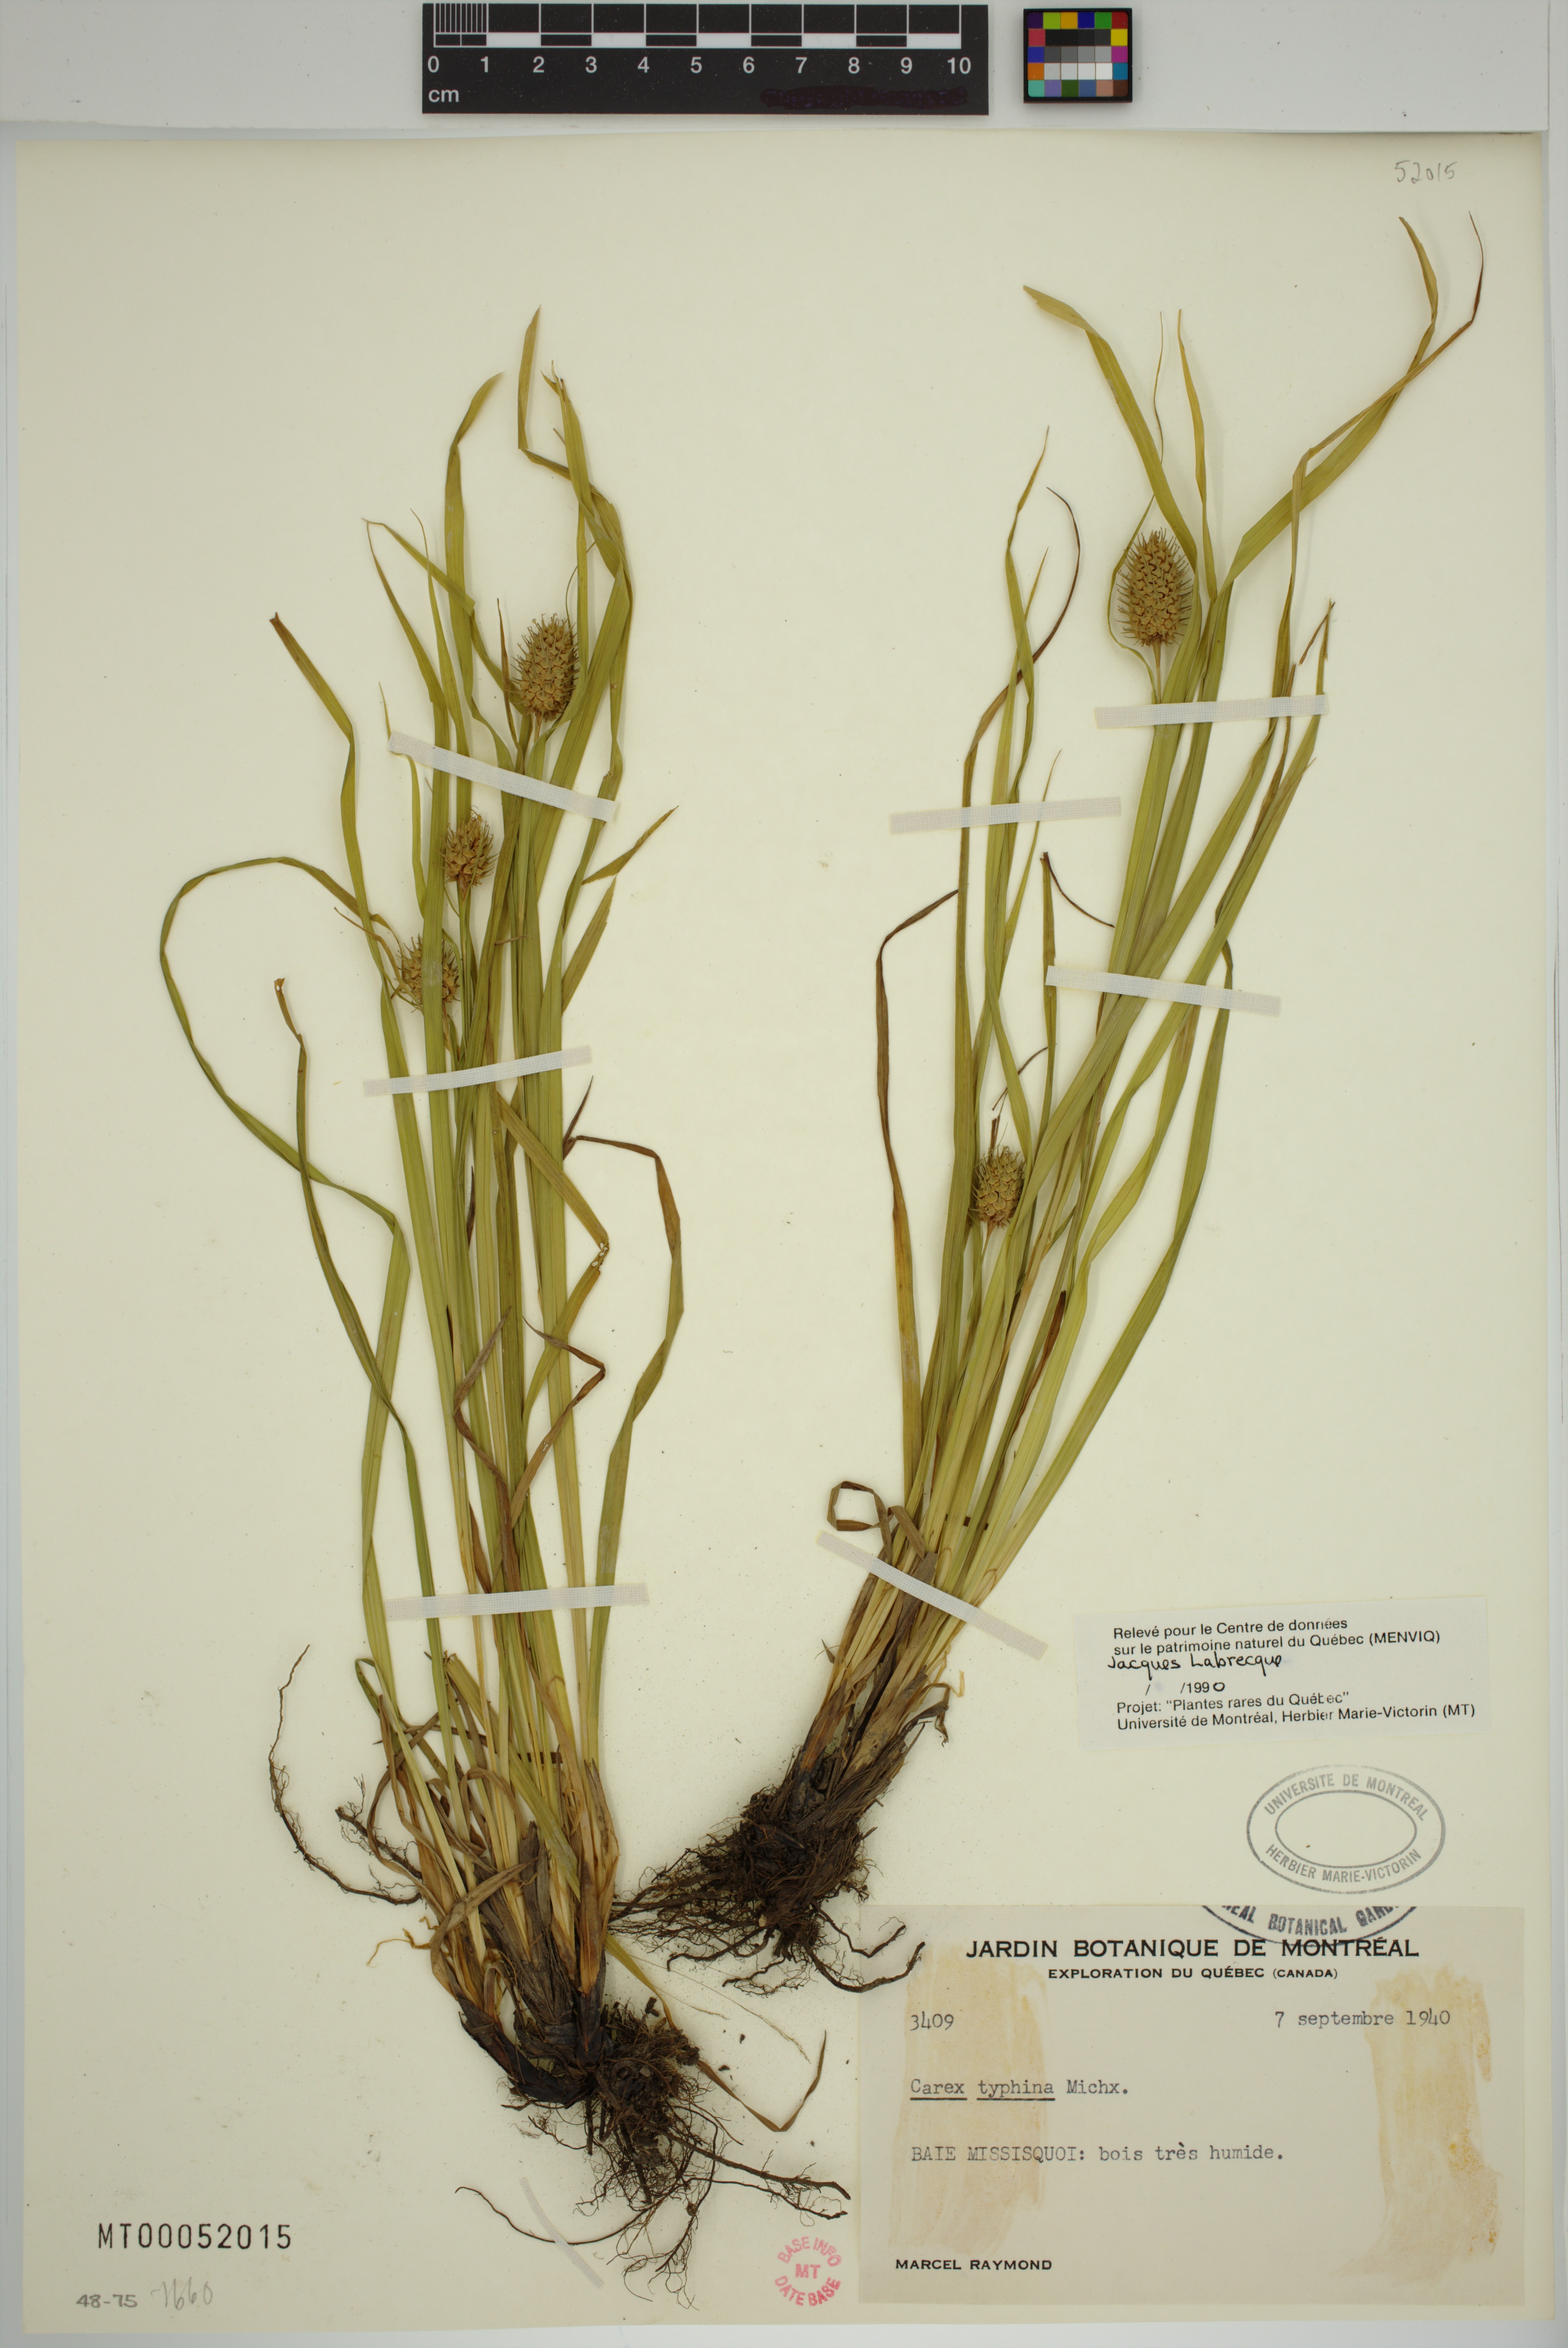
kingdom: Plantae
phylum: Tracheophyta
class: Liliopsida
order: Poales
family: Cyperaceae
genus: Carex
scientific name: Carex typhina
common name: Cattail sedge
